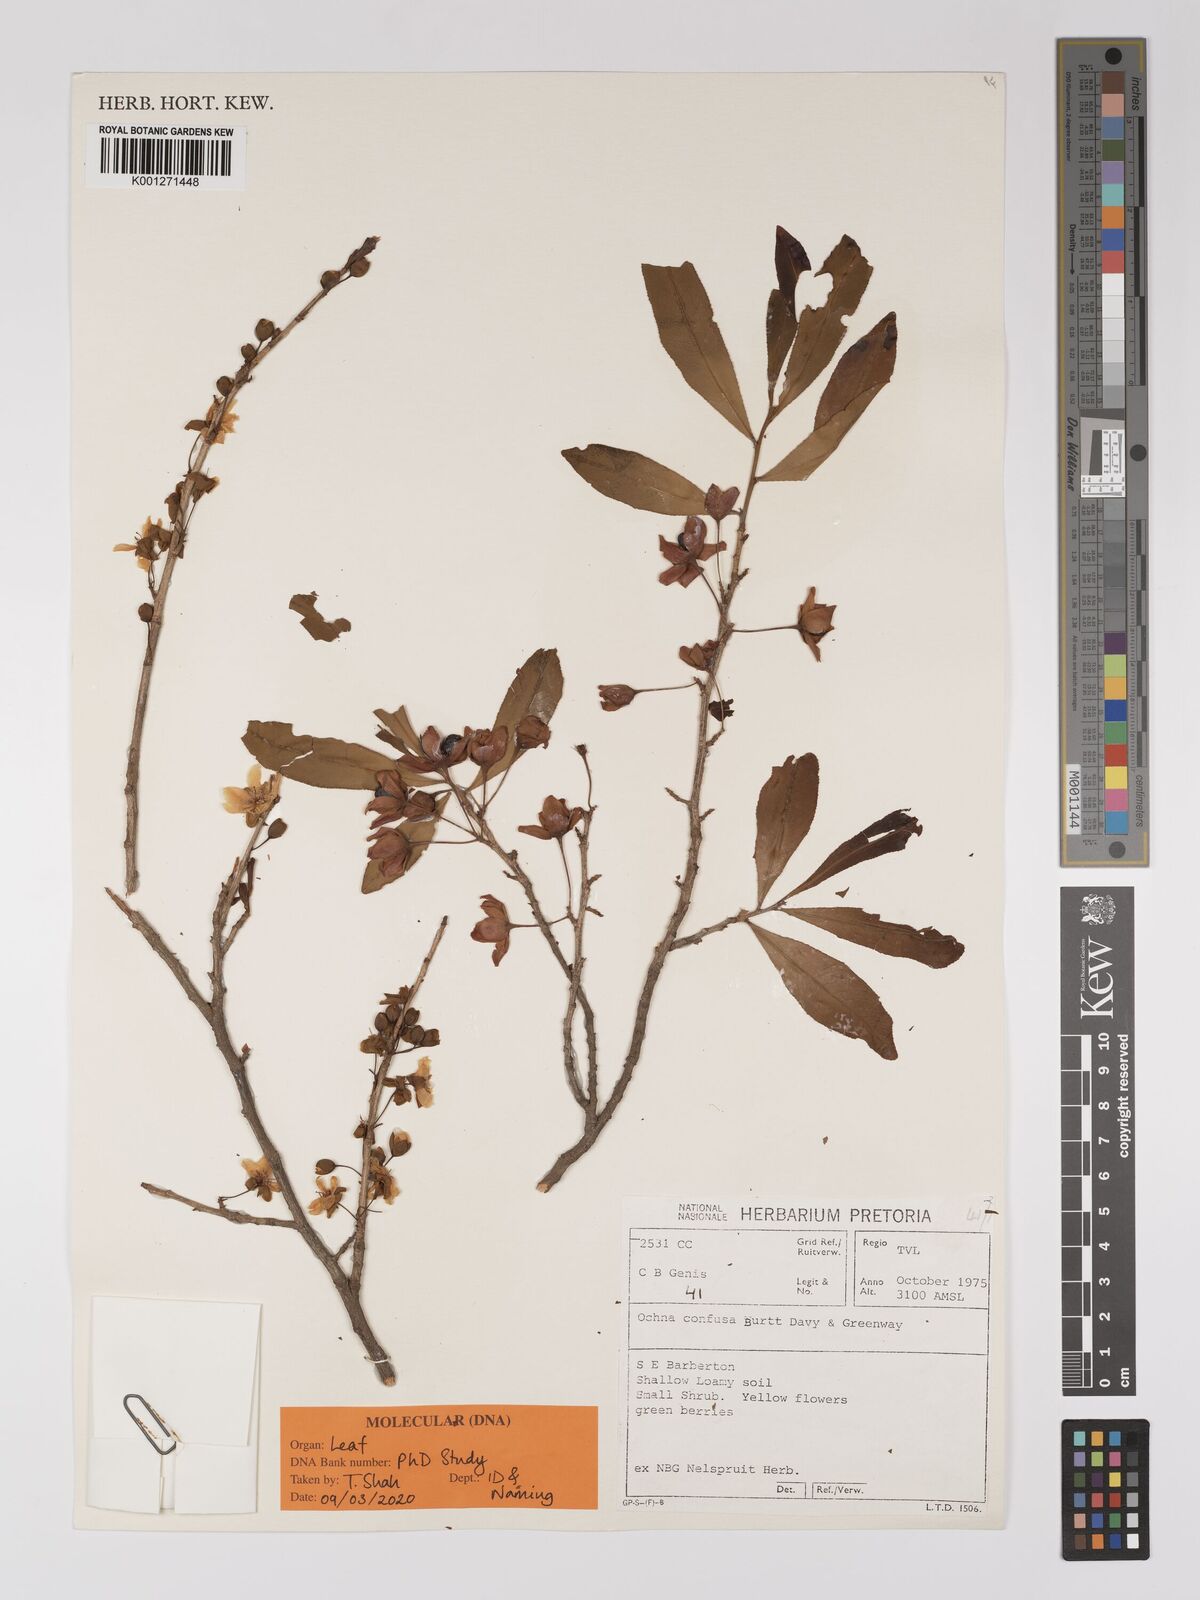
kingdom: Plantae
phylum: Tracheophyta
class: Magnoliopsida
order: Malpighiales
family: Ochnaceae
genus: Ochna
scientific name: Ochna confusa
